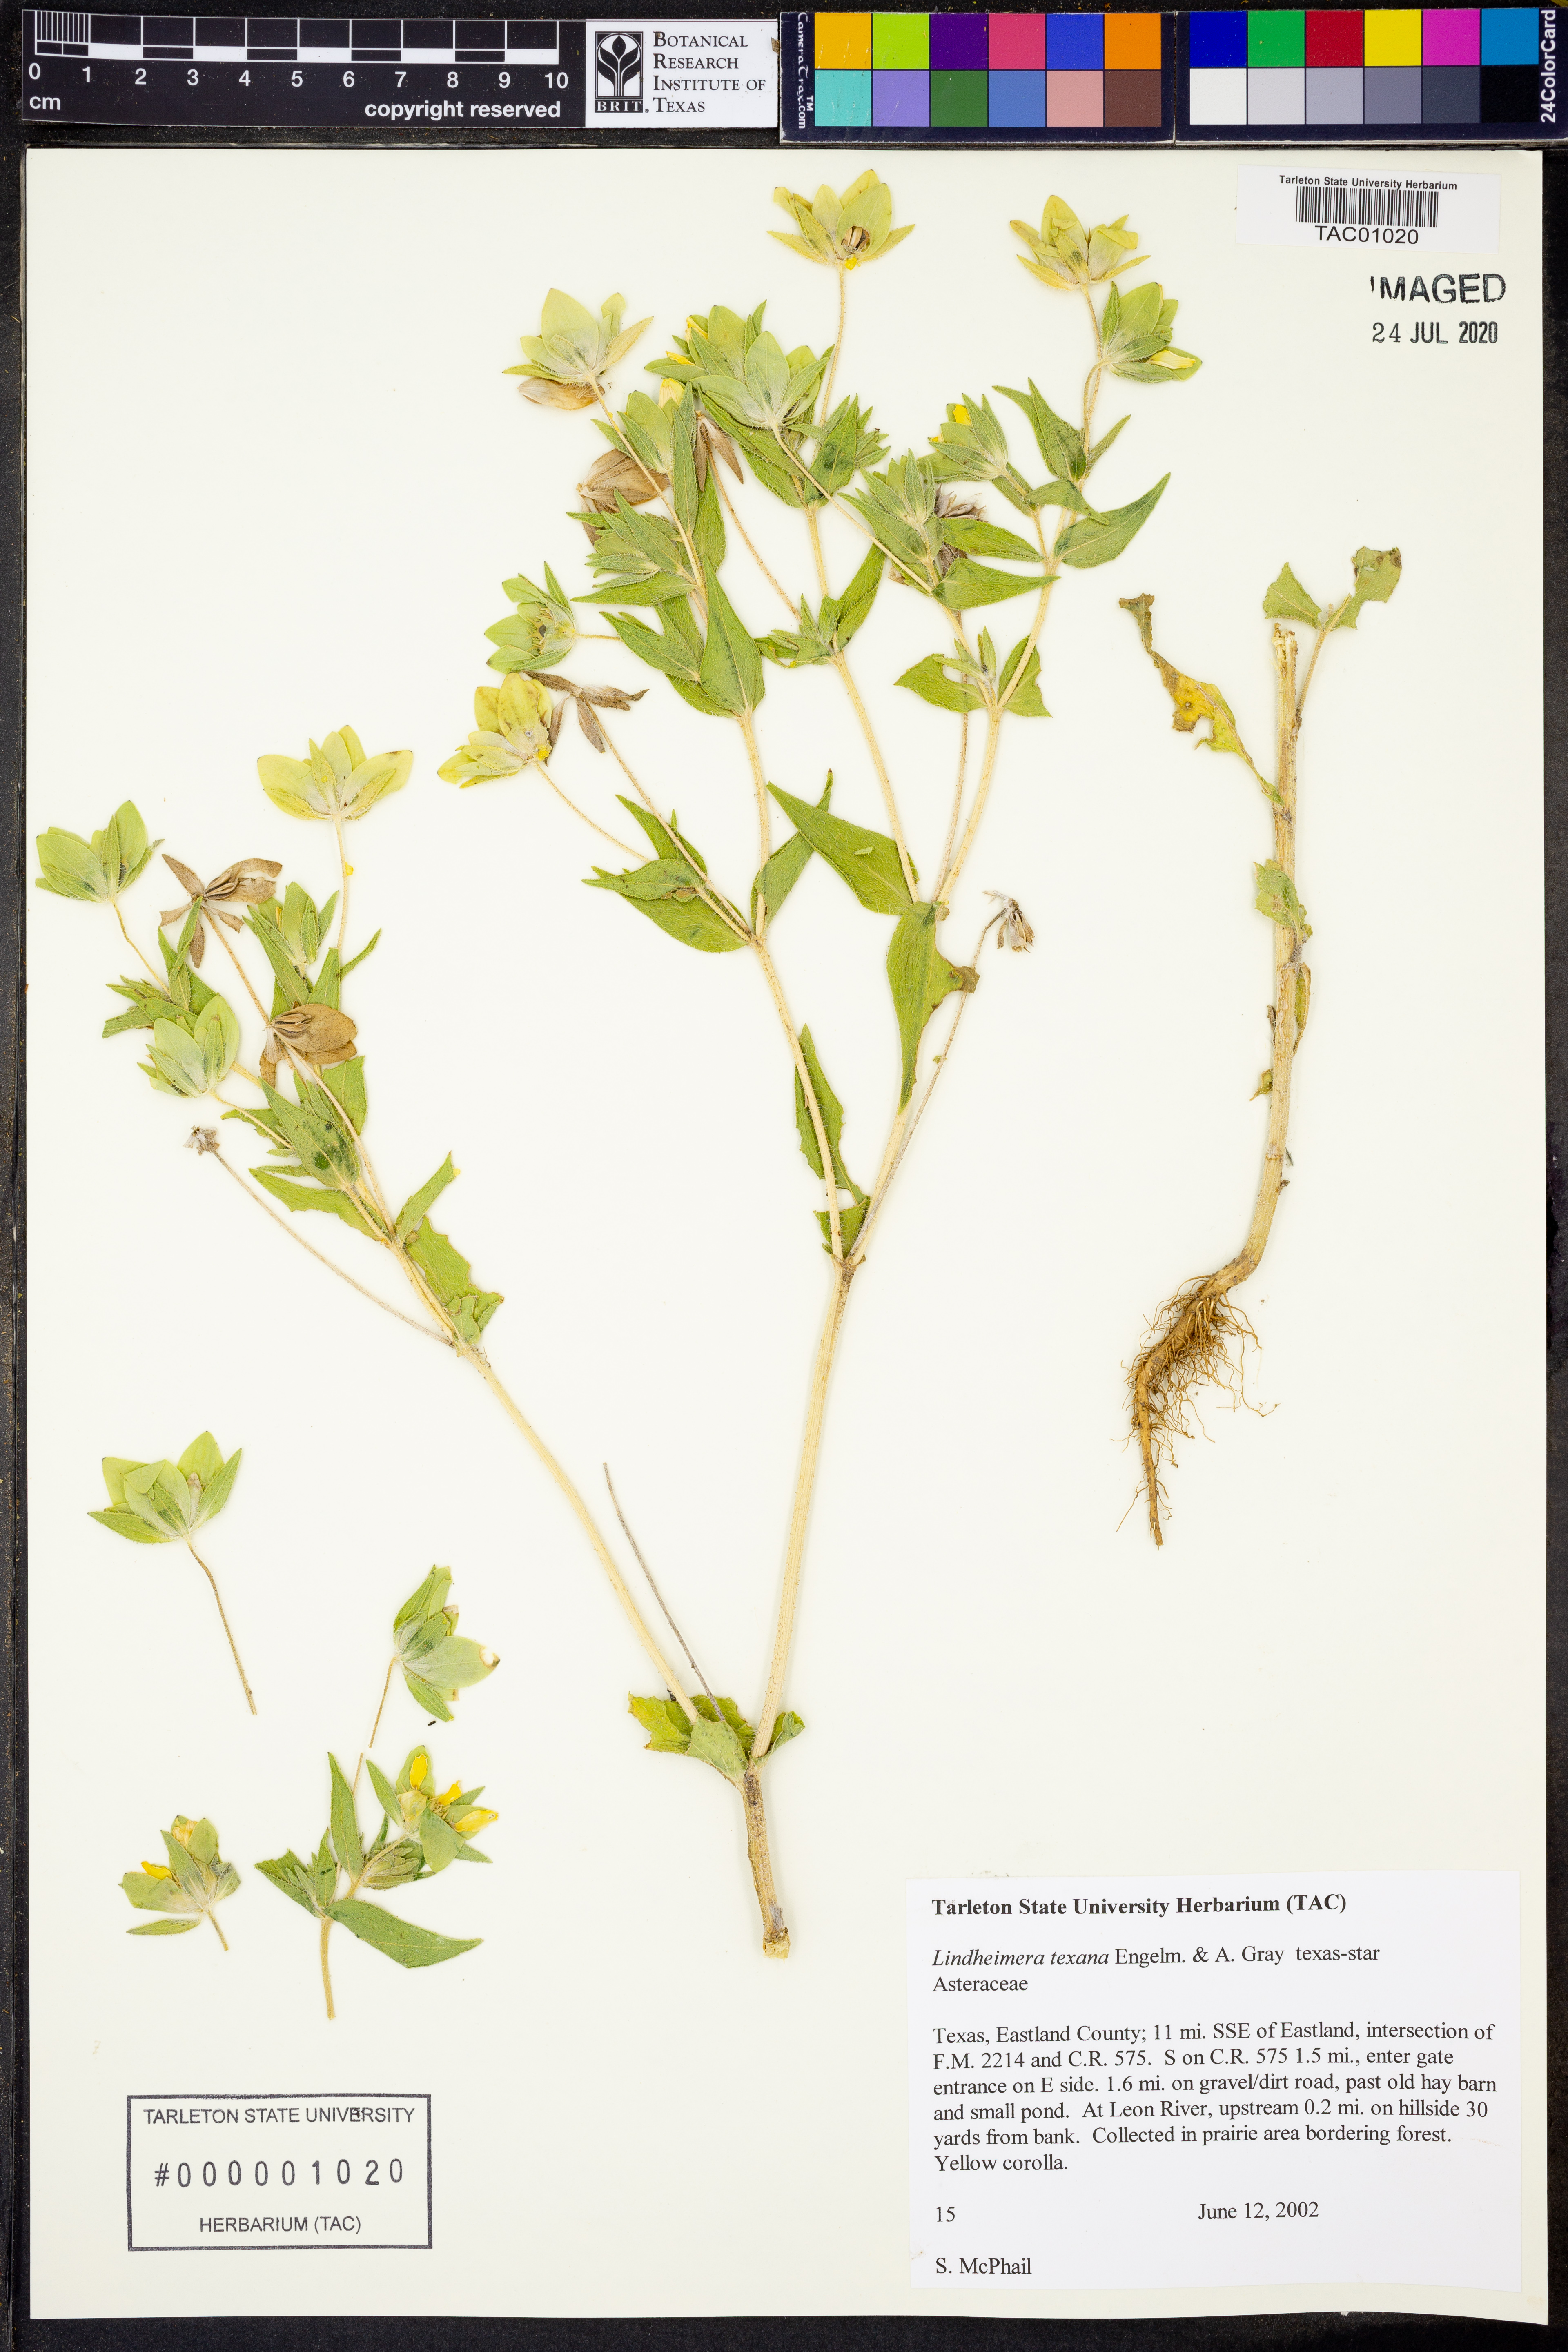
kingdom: Plantae
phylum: Tracheophyta
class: Magnoliopsida
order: Asterales
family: Asteraceae
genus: Lindheimera
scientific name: Lindheimera texana
